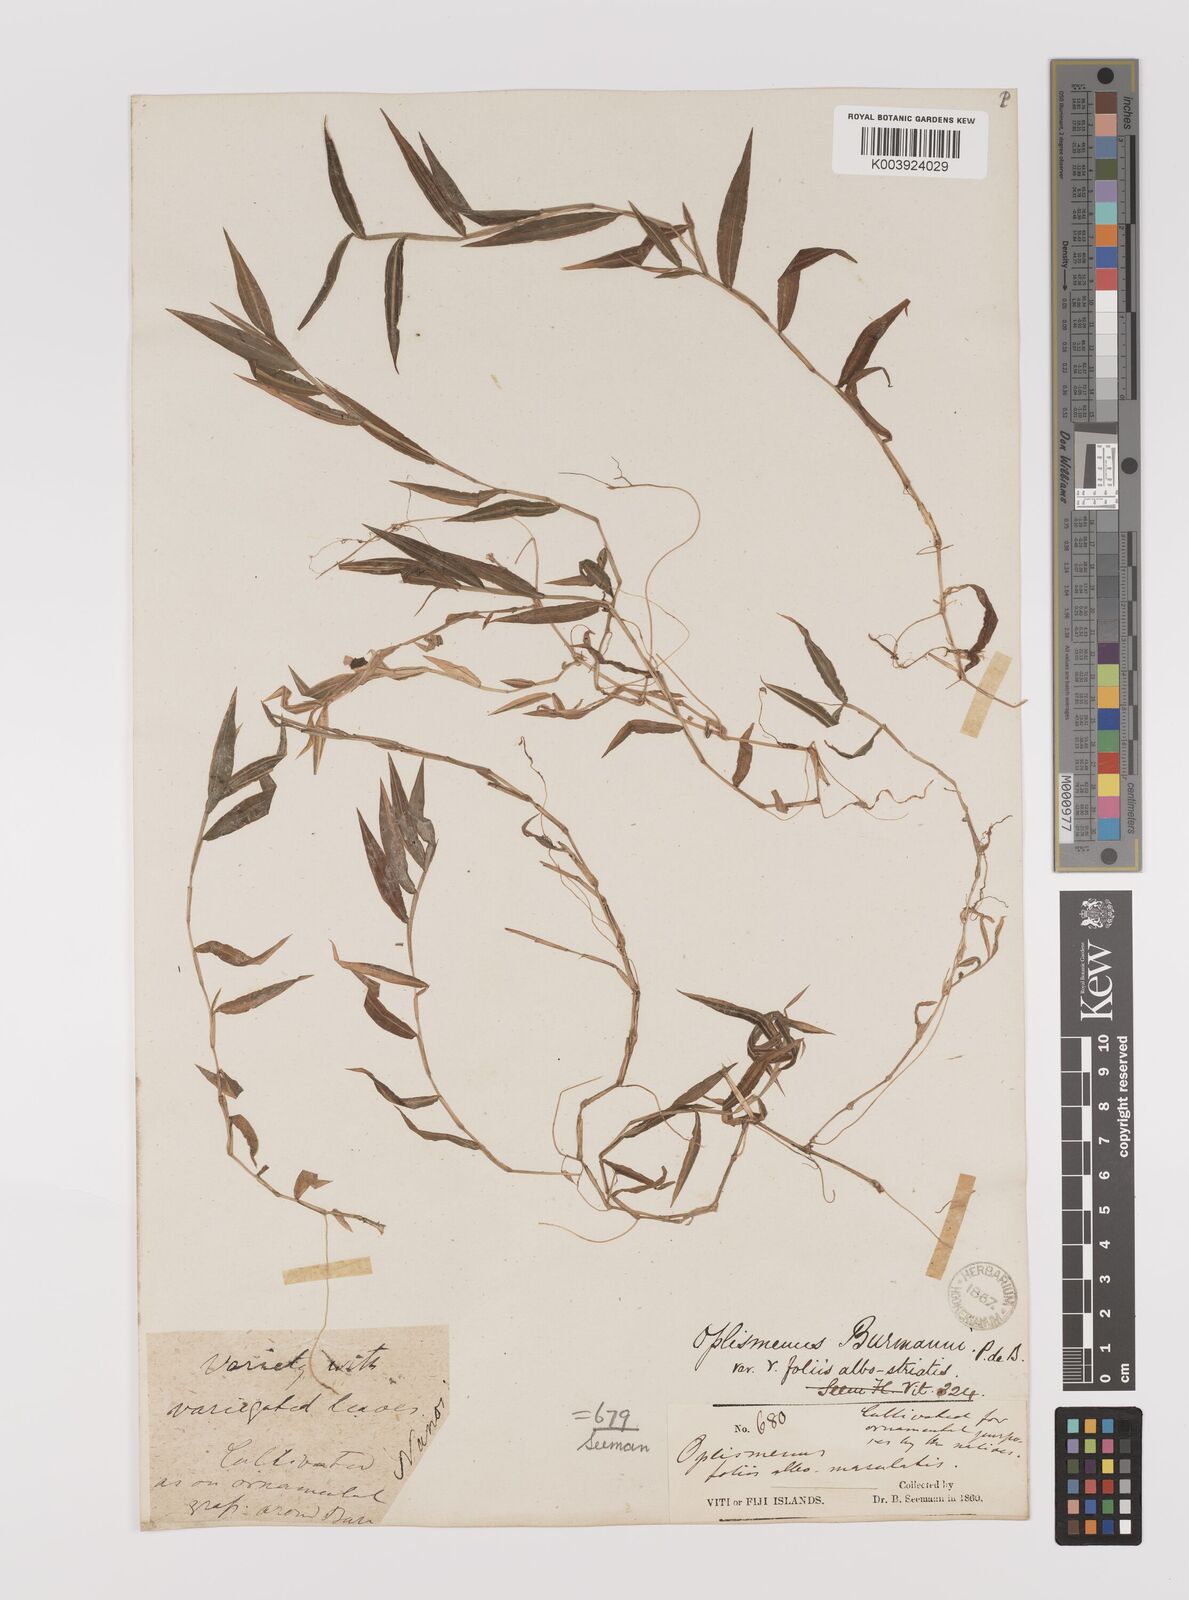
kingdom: Plantae
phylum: Tracheophyta
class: Liliopsida
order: Poales
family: Poaceae
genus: Oplismenus
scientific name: Oplismenus hirtellus
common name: Basketgrass
